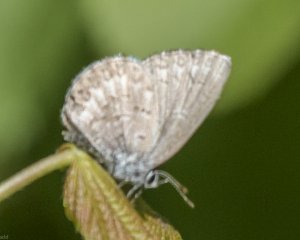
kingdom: Animalia
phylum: Arthropoda
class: Insecta
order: Lepidoptera
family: Lycaenidae
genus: Celastrina
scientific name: Celastrina
